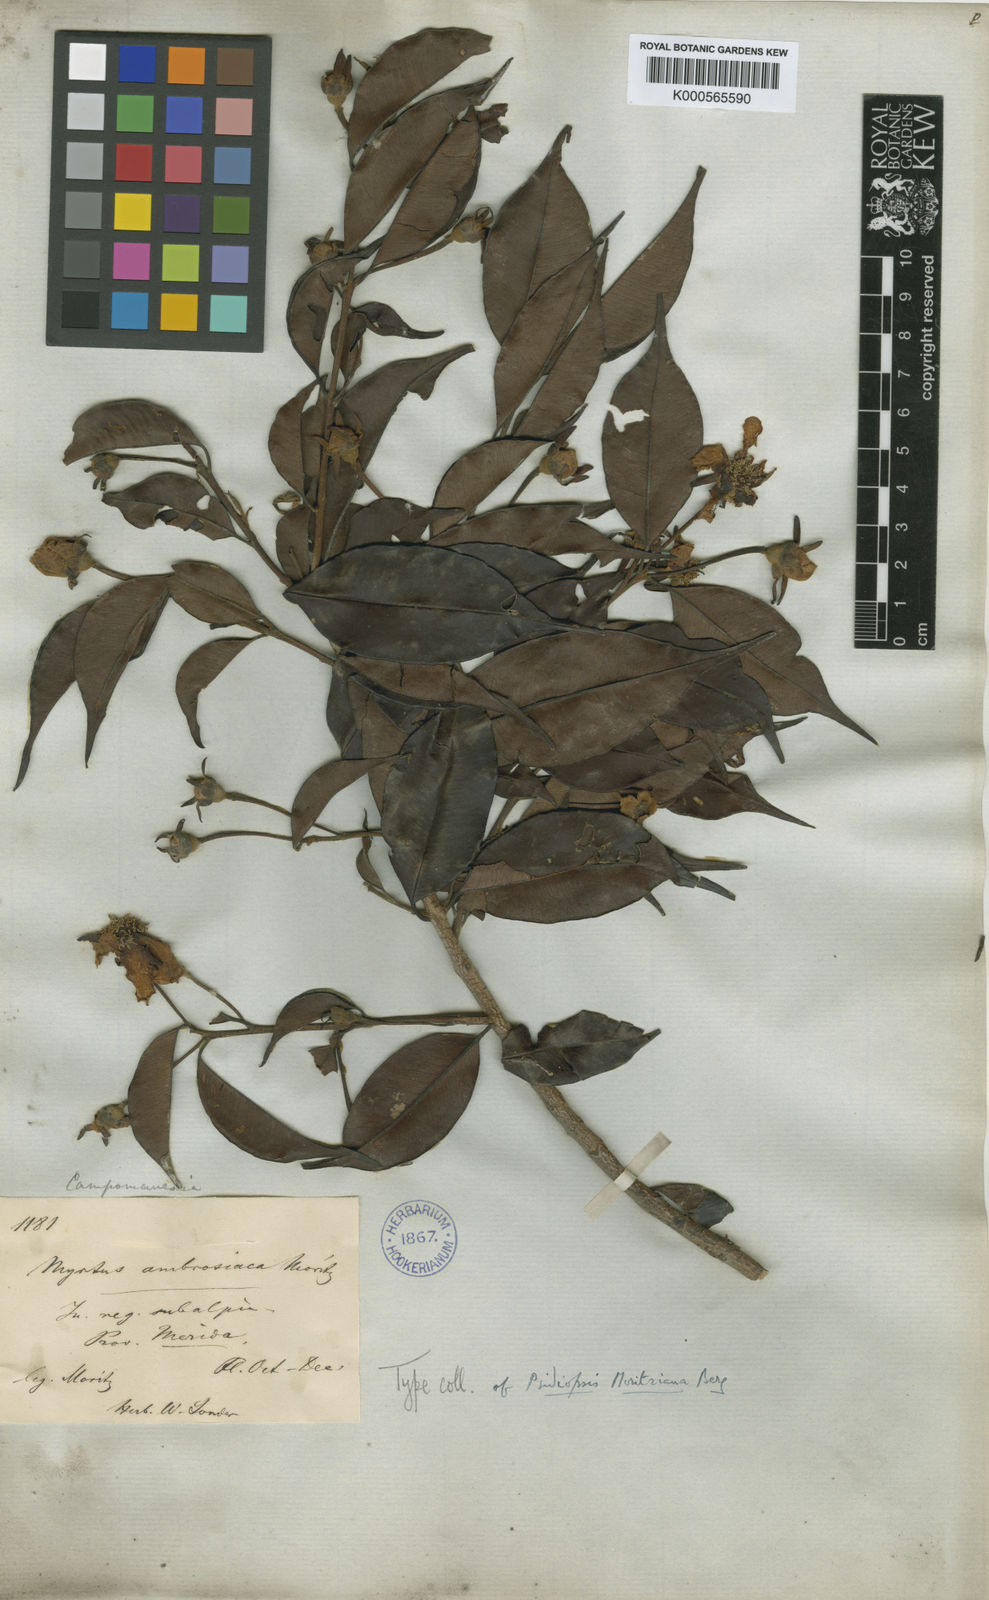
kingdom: Plantae
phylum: Tracheophyta
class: Magnoliopsida
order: Myrtales
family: Myrtaceae
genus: Calycolpus
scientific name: Calycolpus moritzianus
